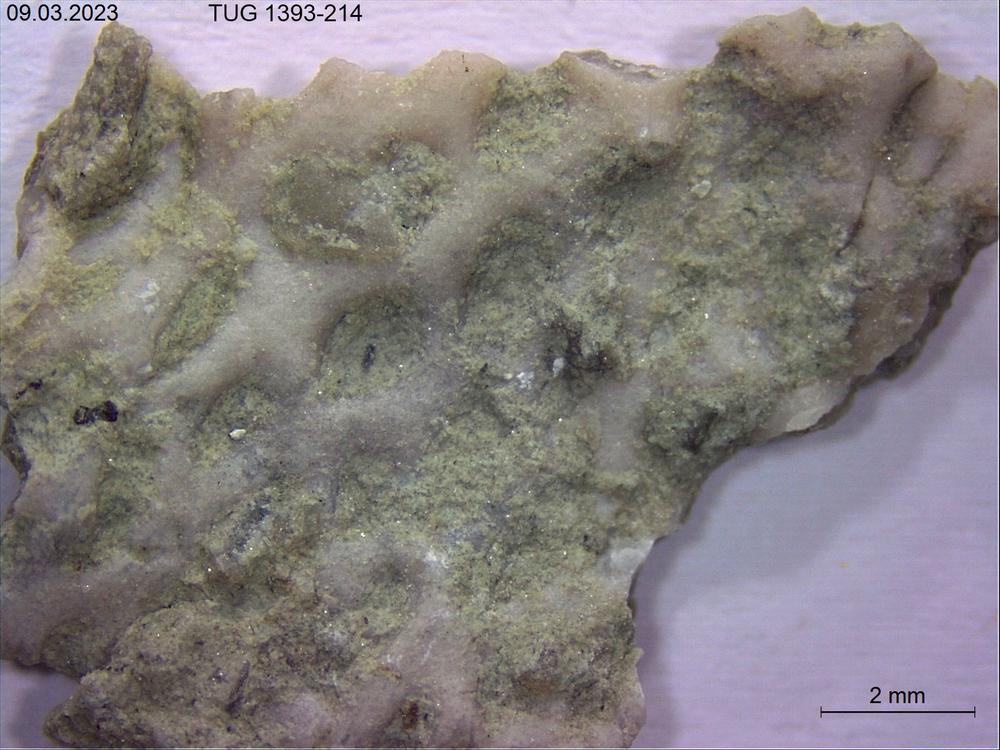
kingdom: Animalia
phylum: Bryozoa
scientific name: Bryozoa
